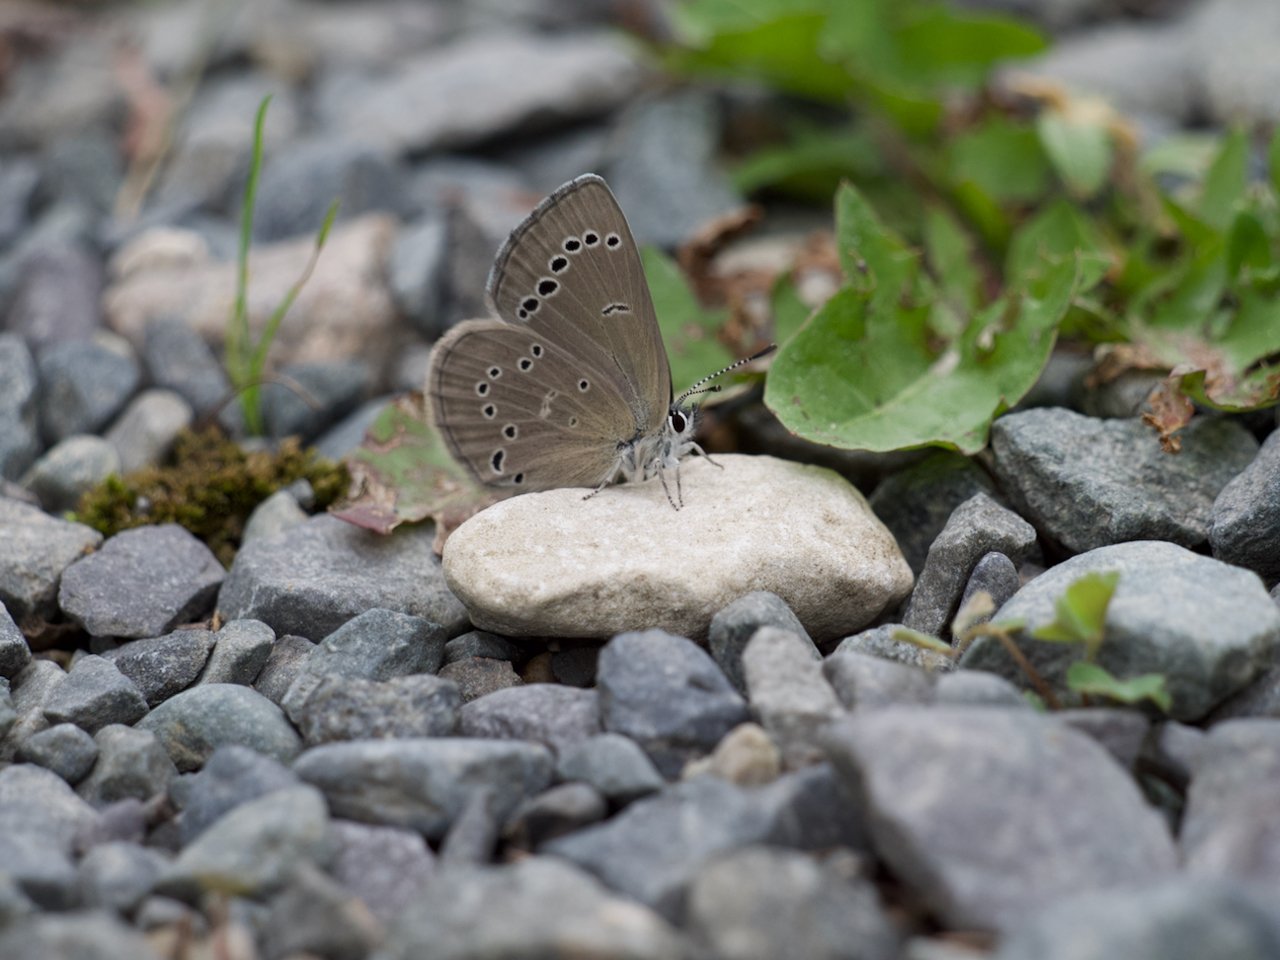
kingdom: Animalia
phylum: Arthropoda
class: Insecta
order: Lepidoptera
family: Lycaenidae
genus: Glaucopsyche
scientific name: Glaucopsyche lygdamus
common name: Silvery Blue
